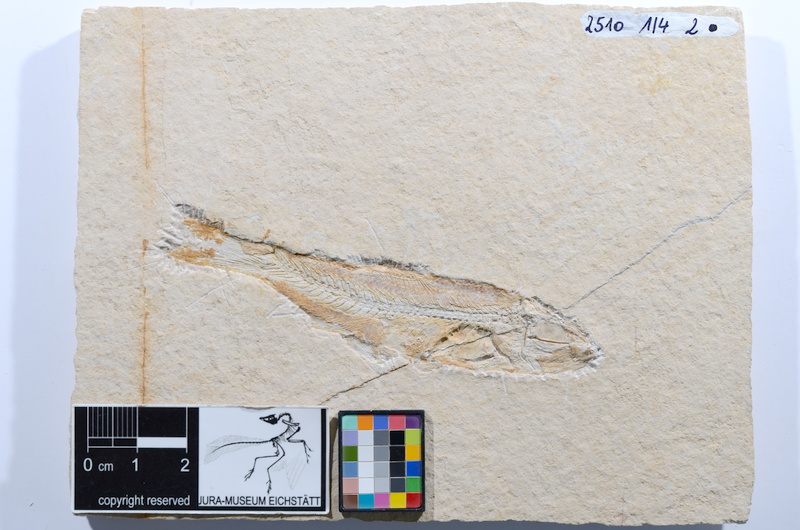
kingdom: Animalia
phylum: Chordata
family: Ascalaboidae
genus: Ascalabos
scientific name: Ascalabos voithii
